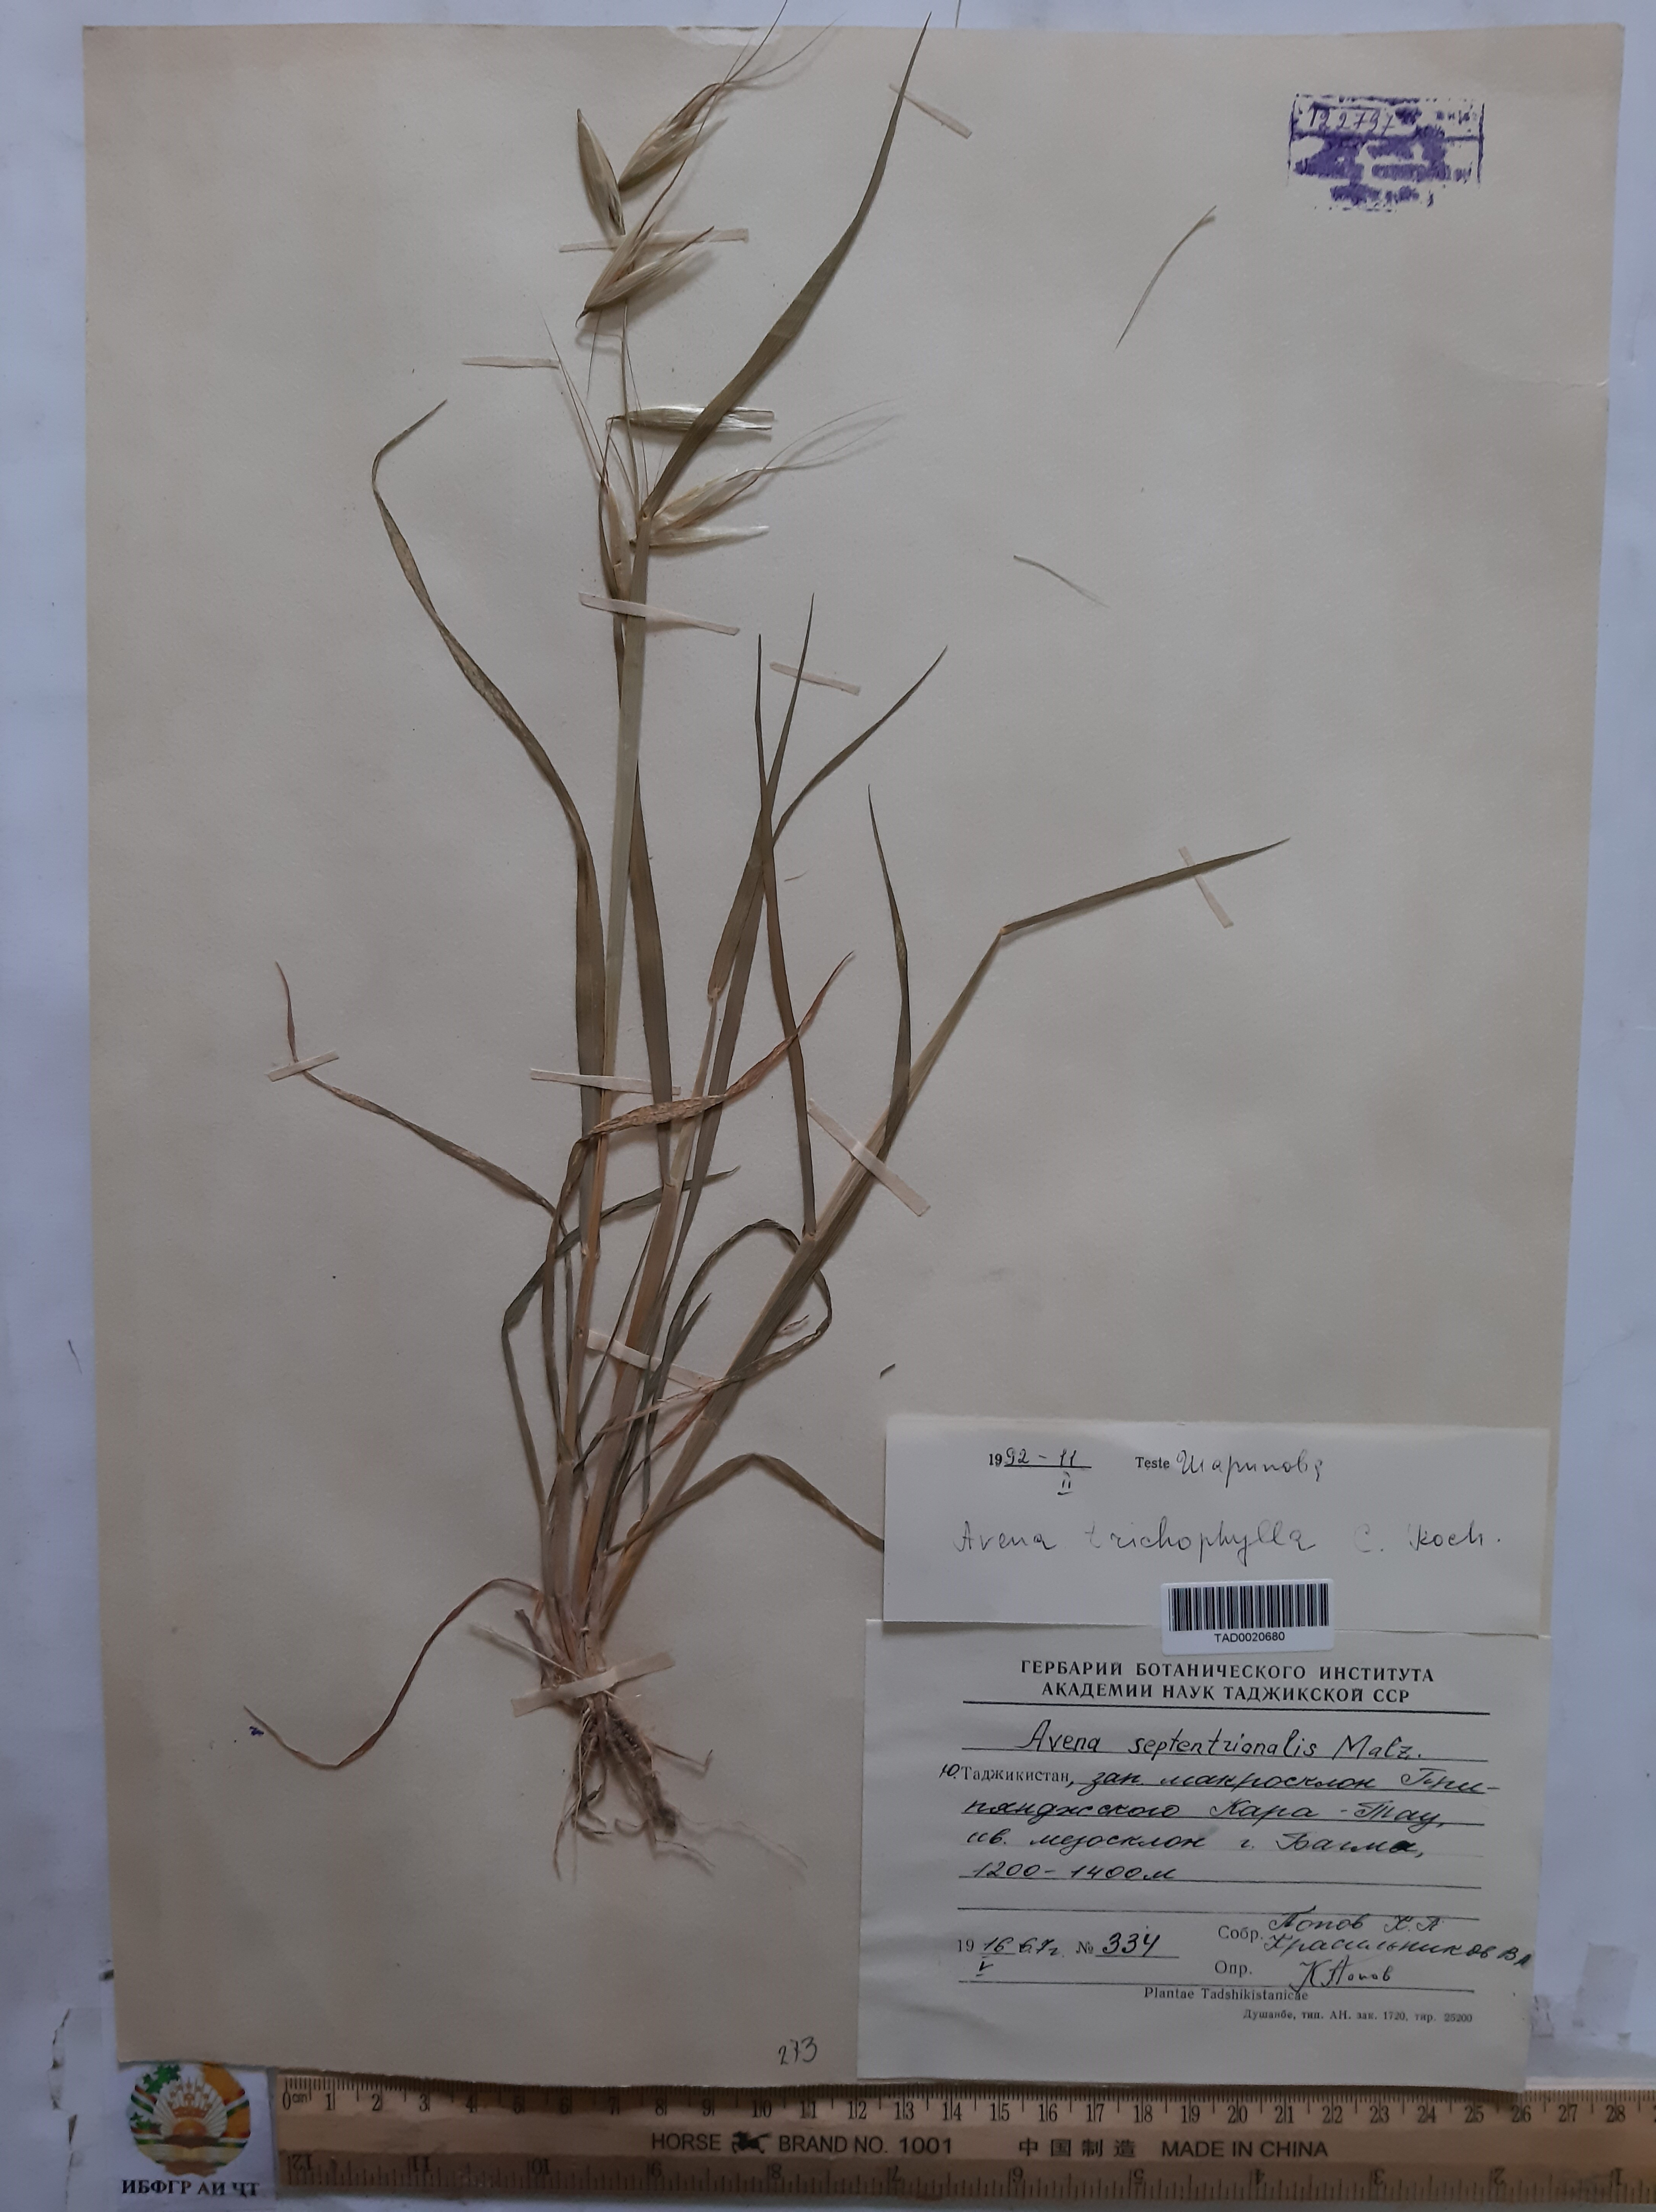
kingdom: Plantae
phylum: Tracheophyta
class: Liliopsida
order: Poales
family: Poaceae
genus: Avena
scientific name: Avena sterilis
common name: Animated oat
